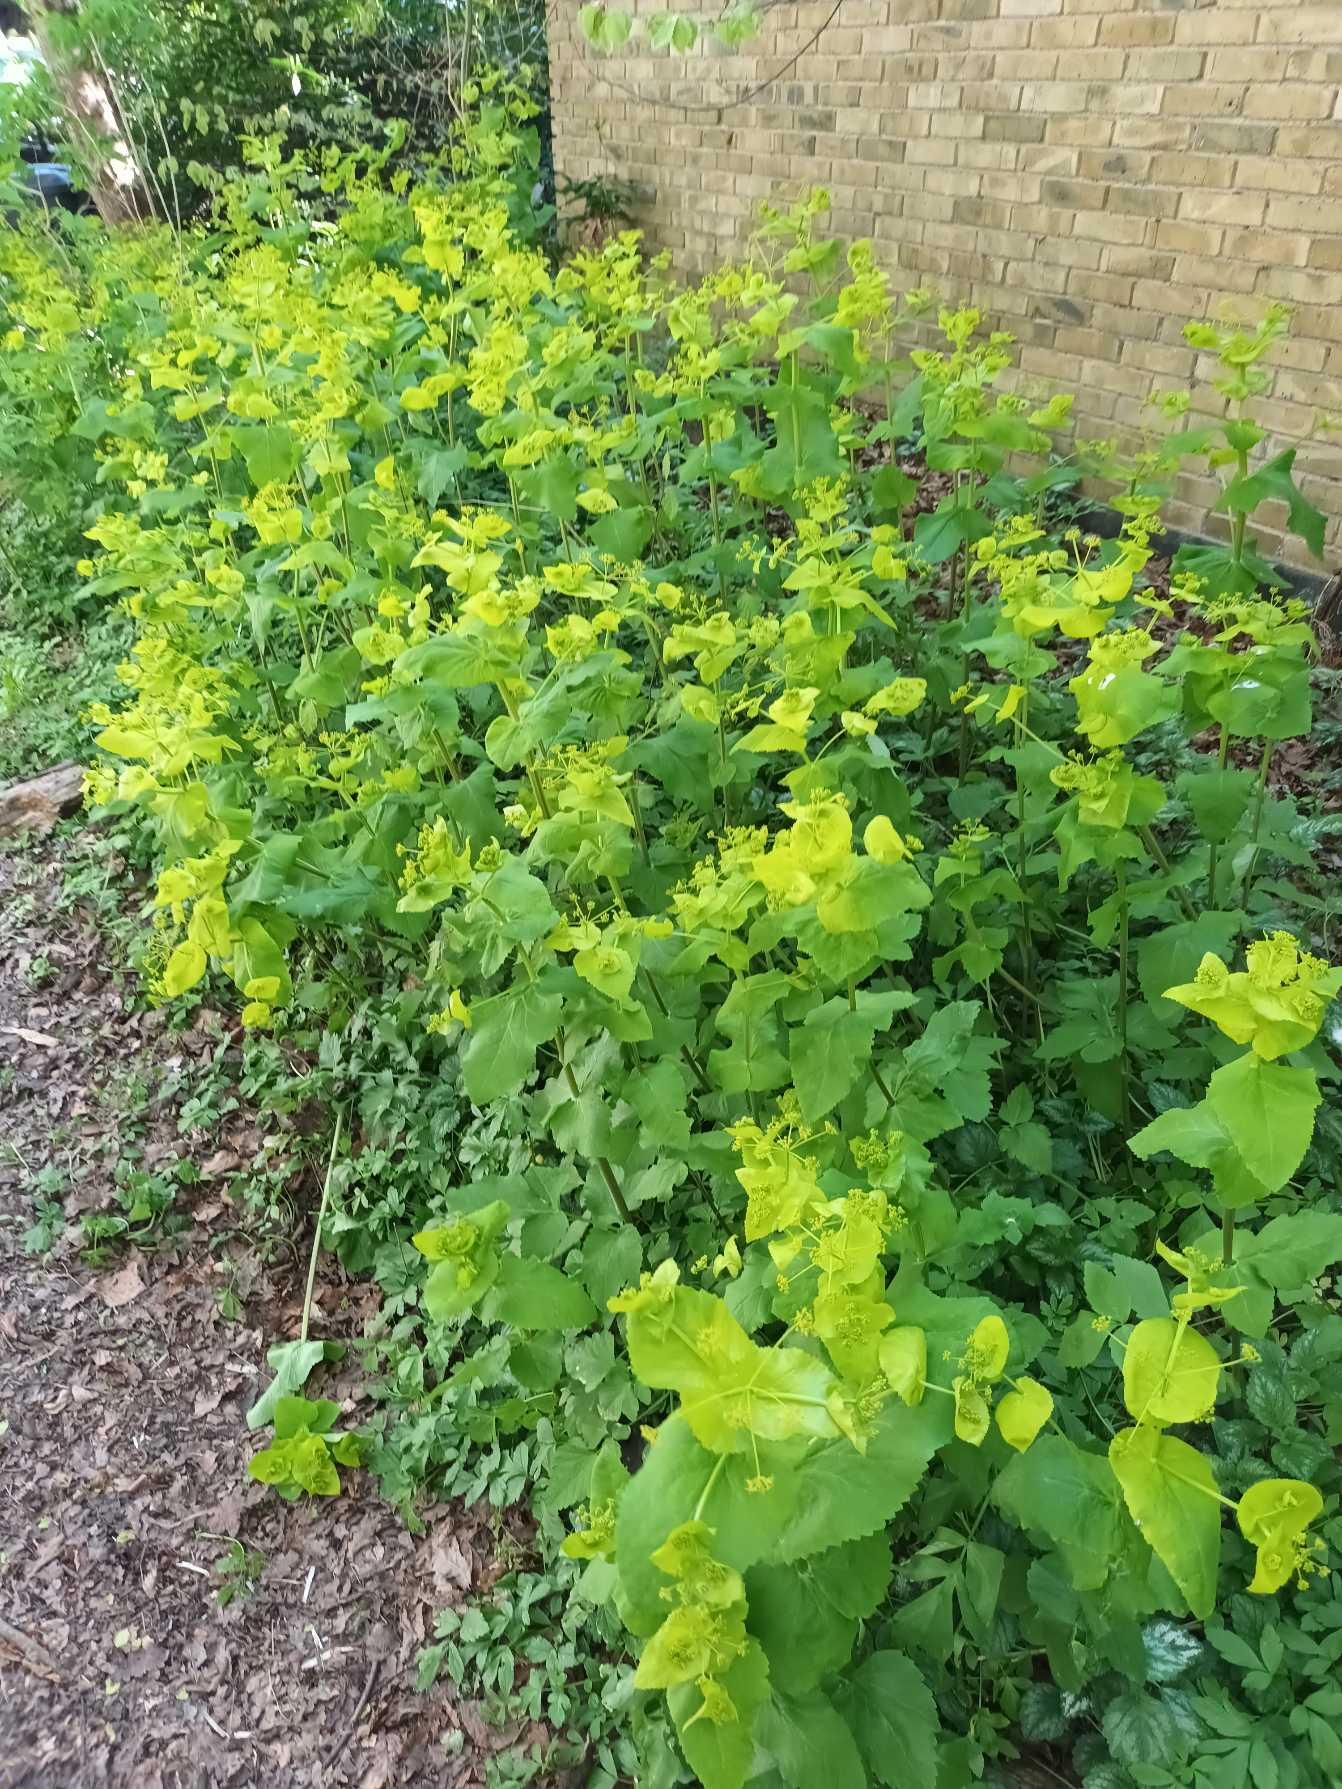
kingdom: Plantae
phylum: Tracheophyta
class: Magnoliopsida
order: Apiales
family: Apiaceae
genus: Smyrnium
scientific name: Smyrnium perfoliatum
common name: Lundgylden
